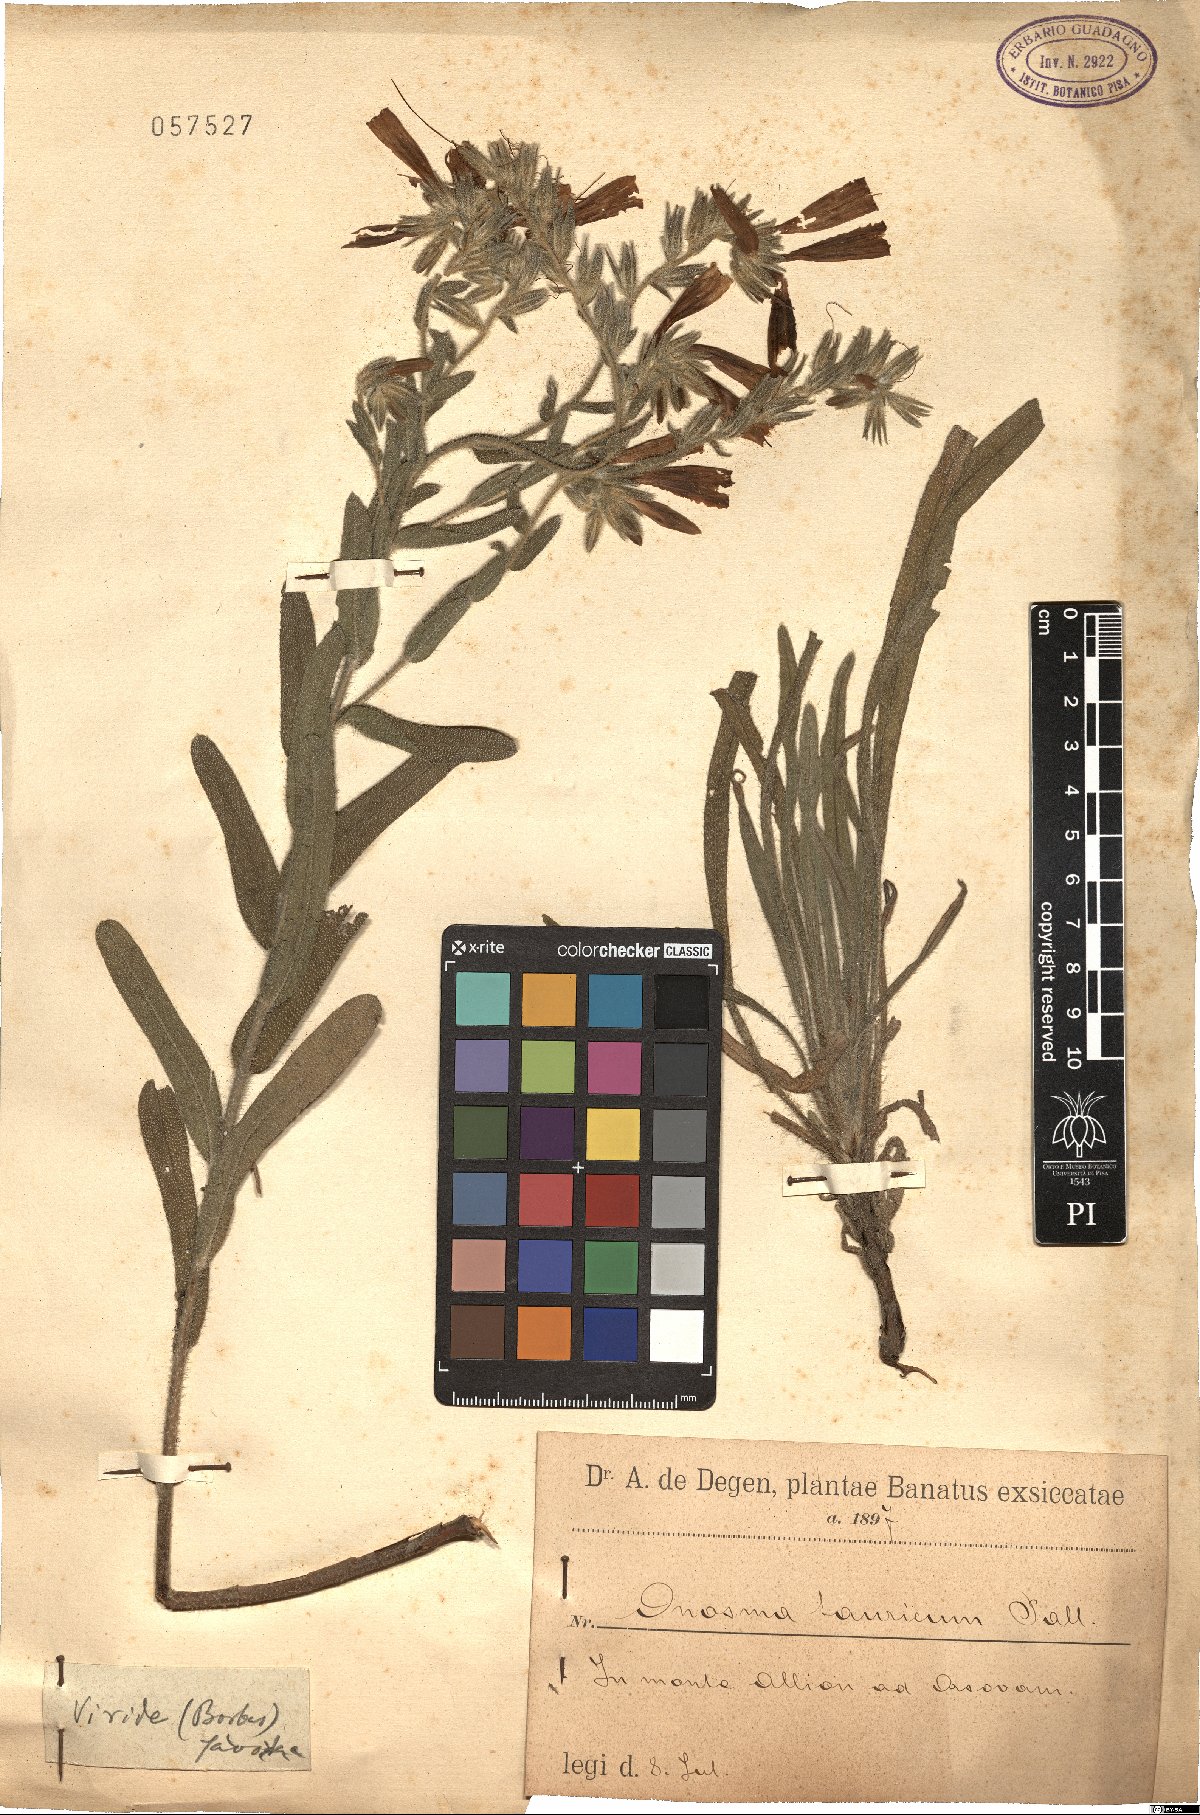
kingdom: Plantae
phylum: Tracheophyta
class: Magnoliopsida
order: Boraginales
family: Boraginaceae
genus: Onosma
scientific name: Onosma cinerea
